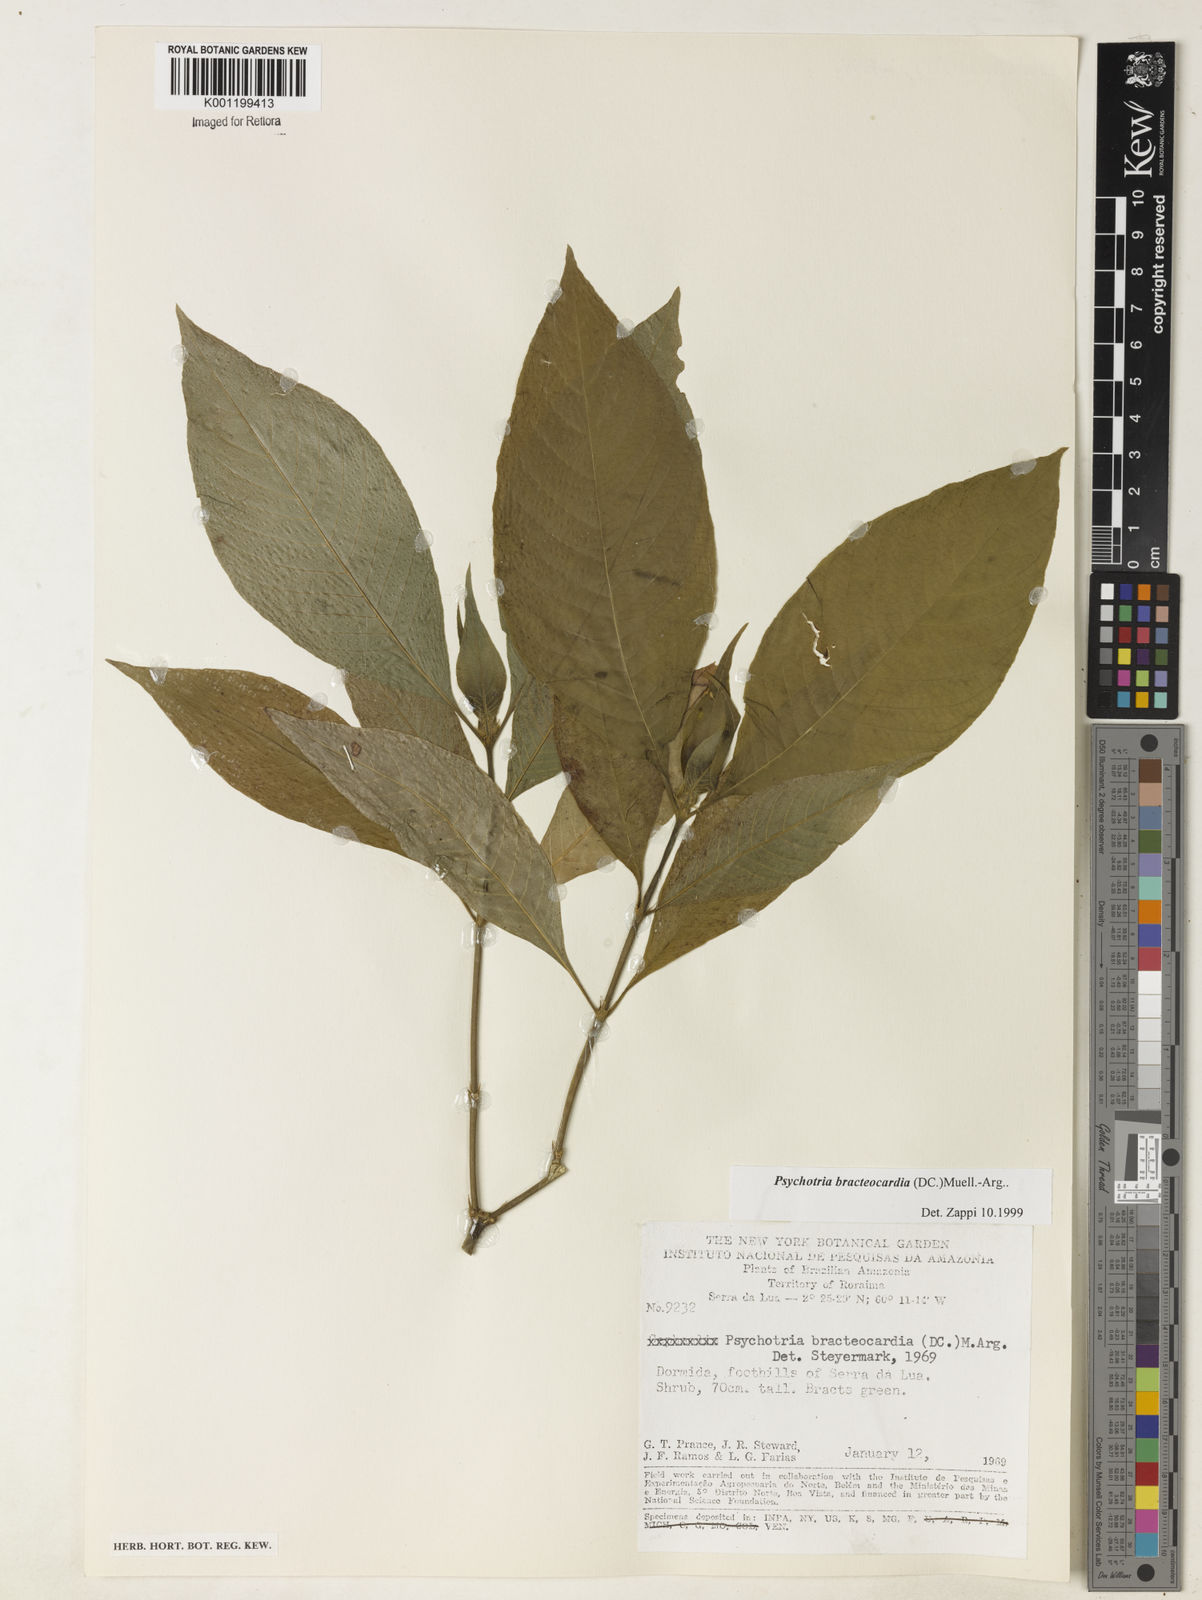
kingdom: Plantae
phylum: Tracheophyta
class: Magnoliopsida
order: Gentianales
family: Rubiaceae
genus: Psychotria
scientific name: Psychotria
